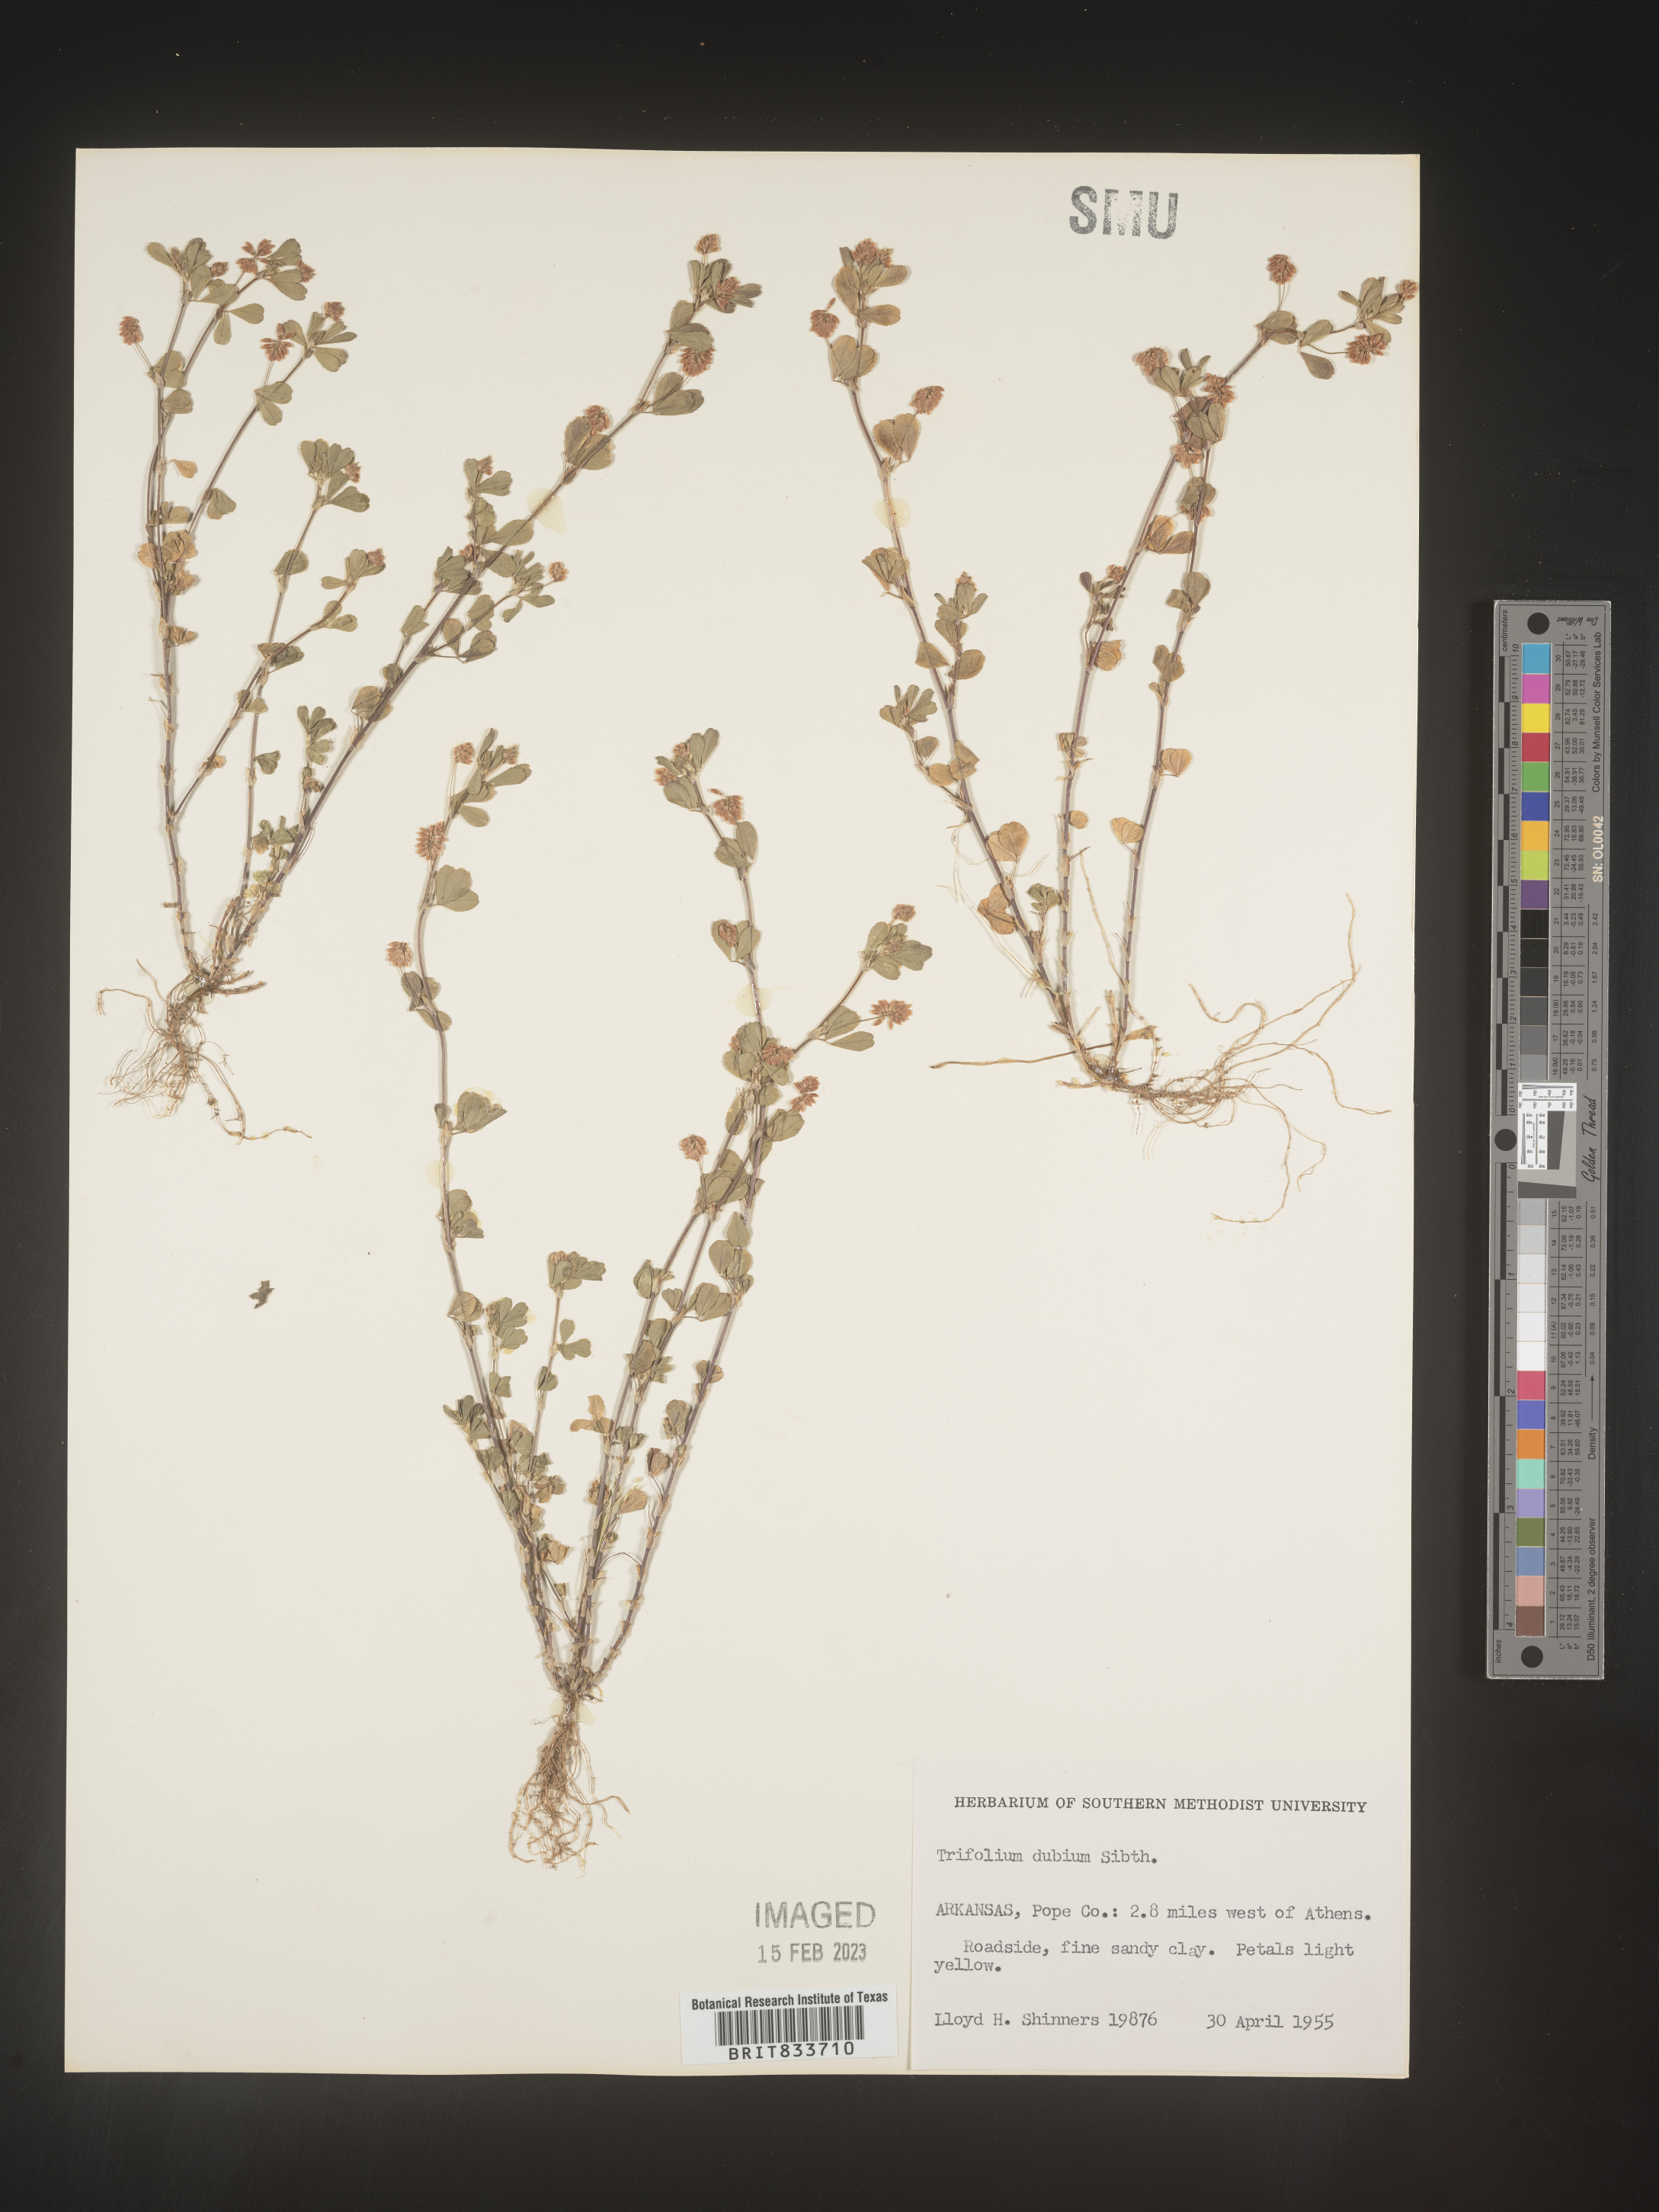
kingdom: Plantae
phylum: Tracheophyta
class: Magnoliopsida
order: Fabales
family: Fabaceae
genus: Trifolium
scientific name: Trifolium dubium
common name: Suckling clover
